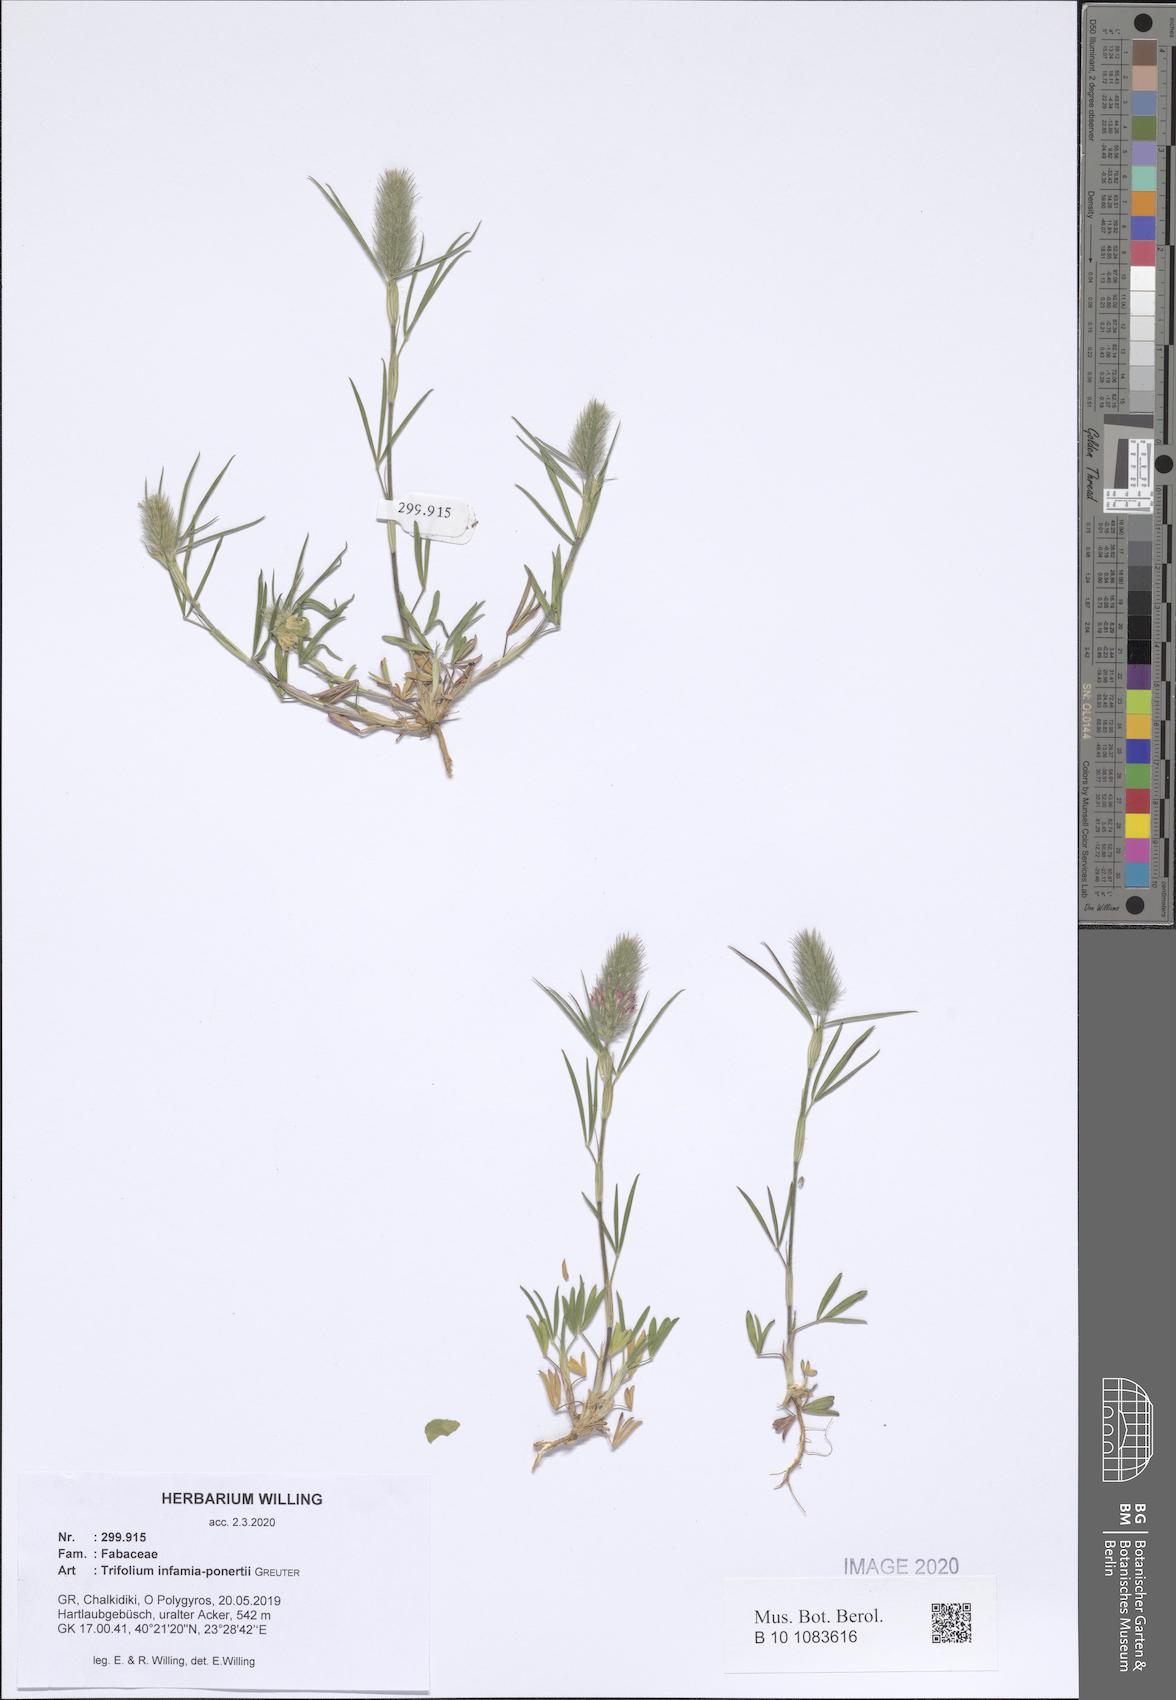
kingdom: Plantae
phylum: Tracheophyta
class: Magnoliopsida
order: Fabales
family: Fabaceae
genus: Trifolium
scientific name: Trifolium infamia-ponertii
